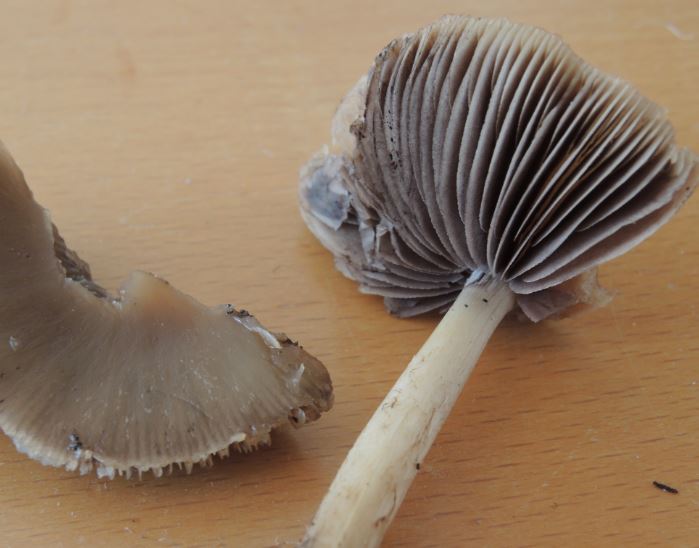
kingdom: Fungi
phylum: Basidiomycota
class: Agaricomycetes
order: Agaricales
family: Psathyrellaceae
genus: Psathyrella
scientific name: Psathyrella spadiceogrisea
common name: gråbrun mørkhat
